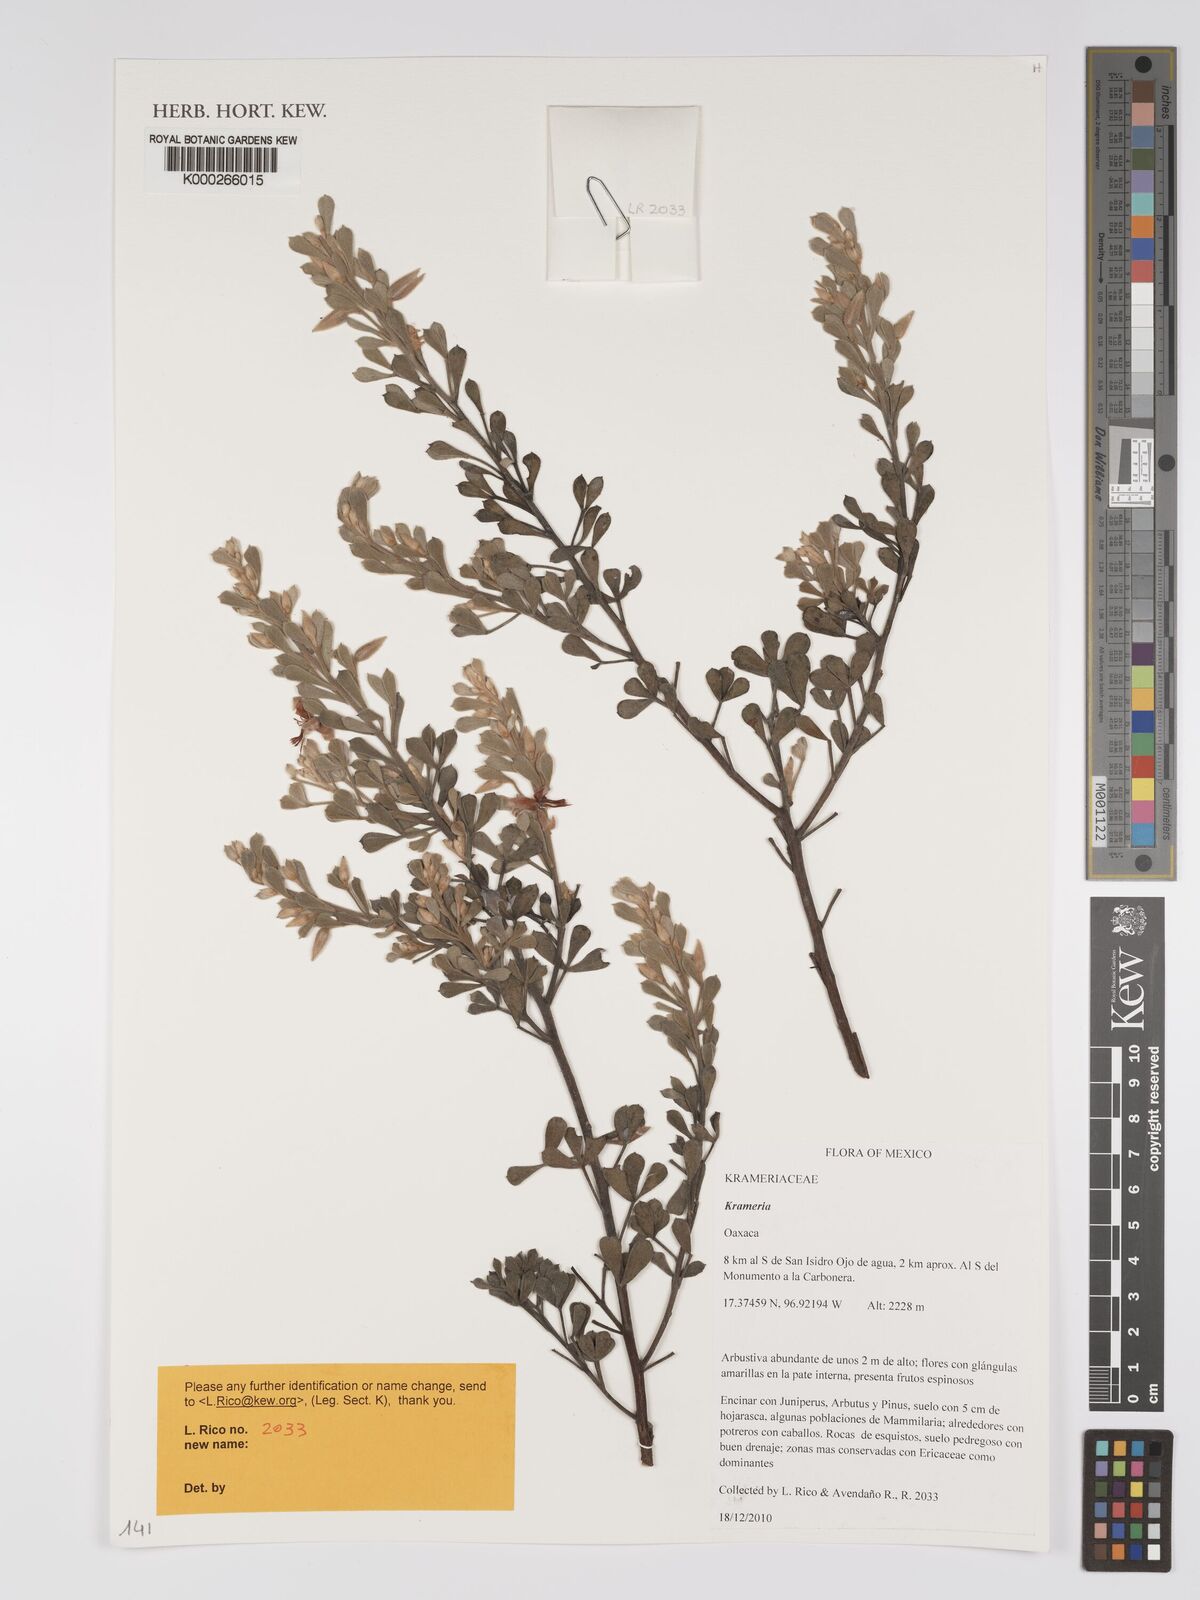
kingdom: Plantae
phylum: Tracheophyta
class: Magnoliopsida
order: Zygophyllales
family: Krameriaceae
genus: Krameria
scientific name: Krameria
